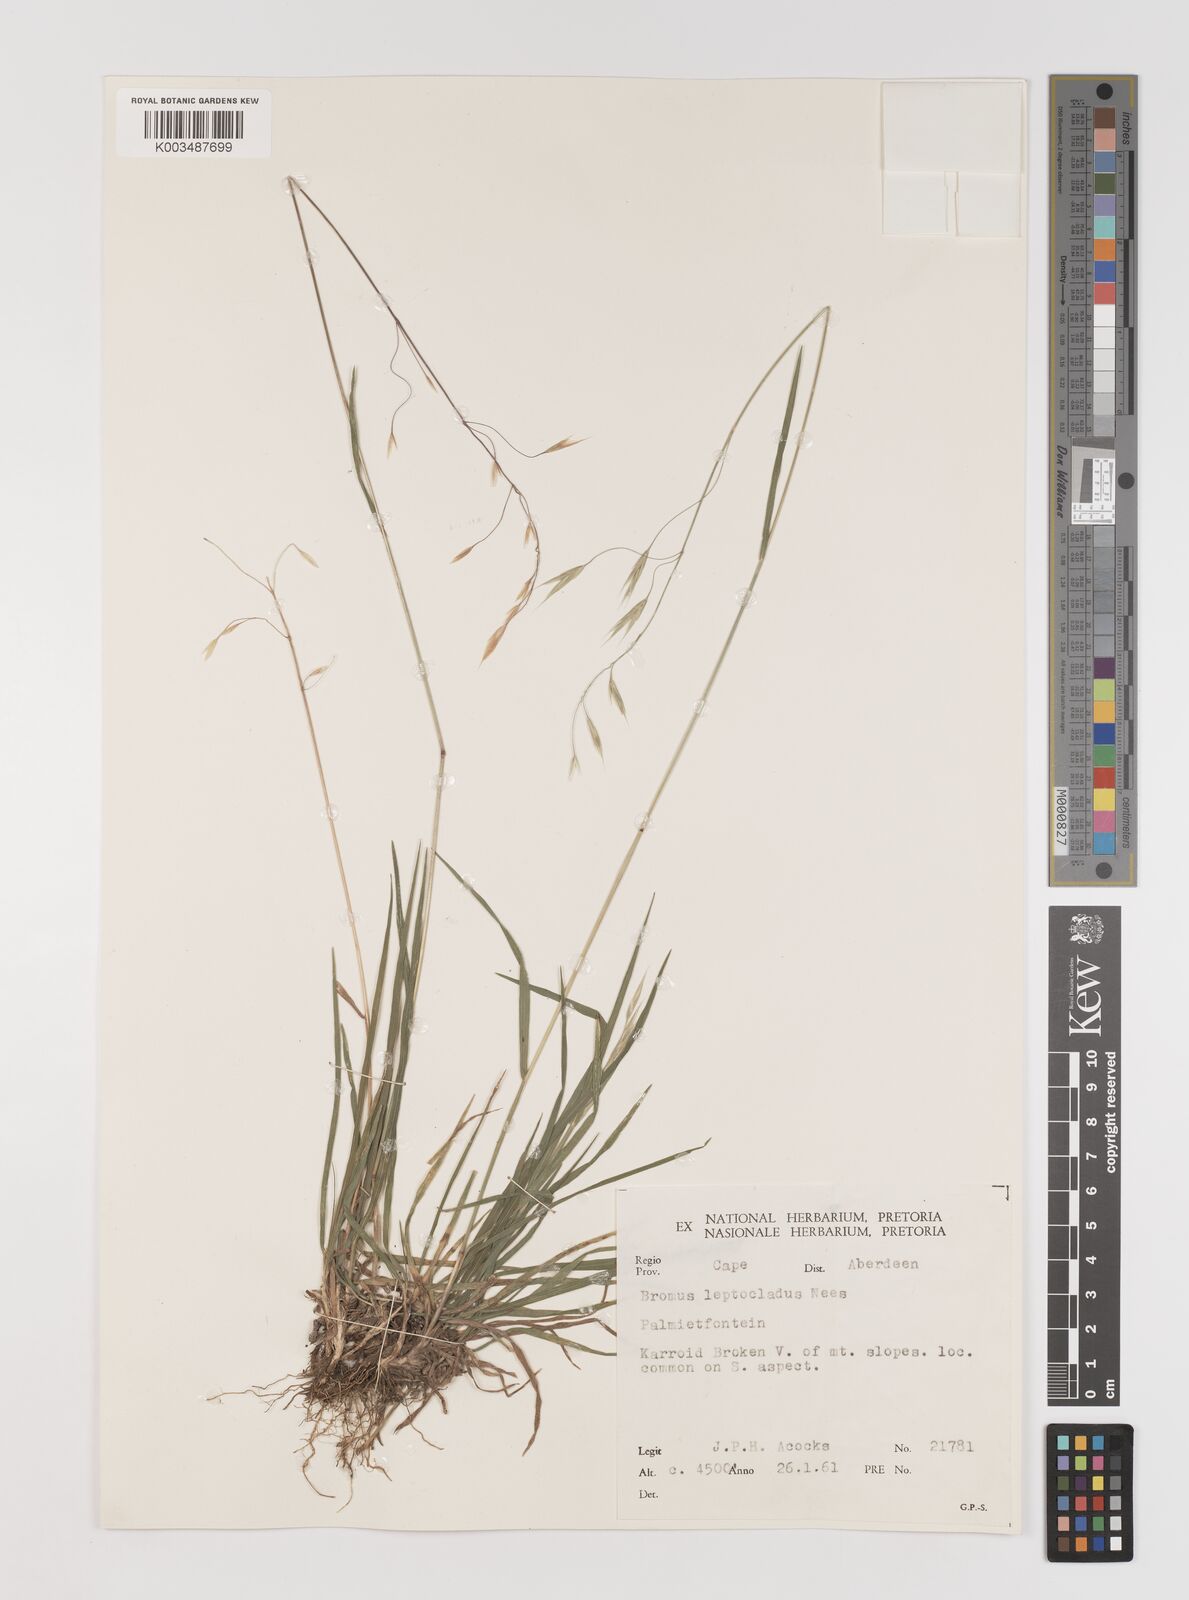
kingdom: Plantae
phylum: Tracheophyta
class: Liliopsida
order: Poales
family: Poaceae
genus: Bromus
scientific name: Bromus leptoclados
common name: Mountain bromegrass
